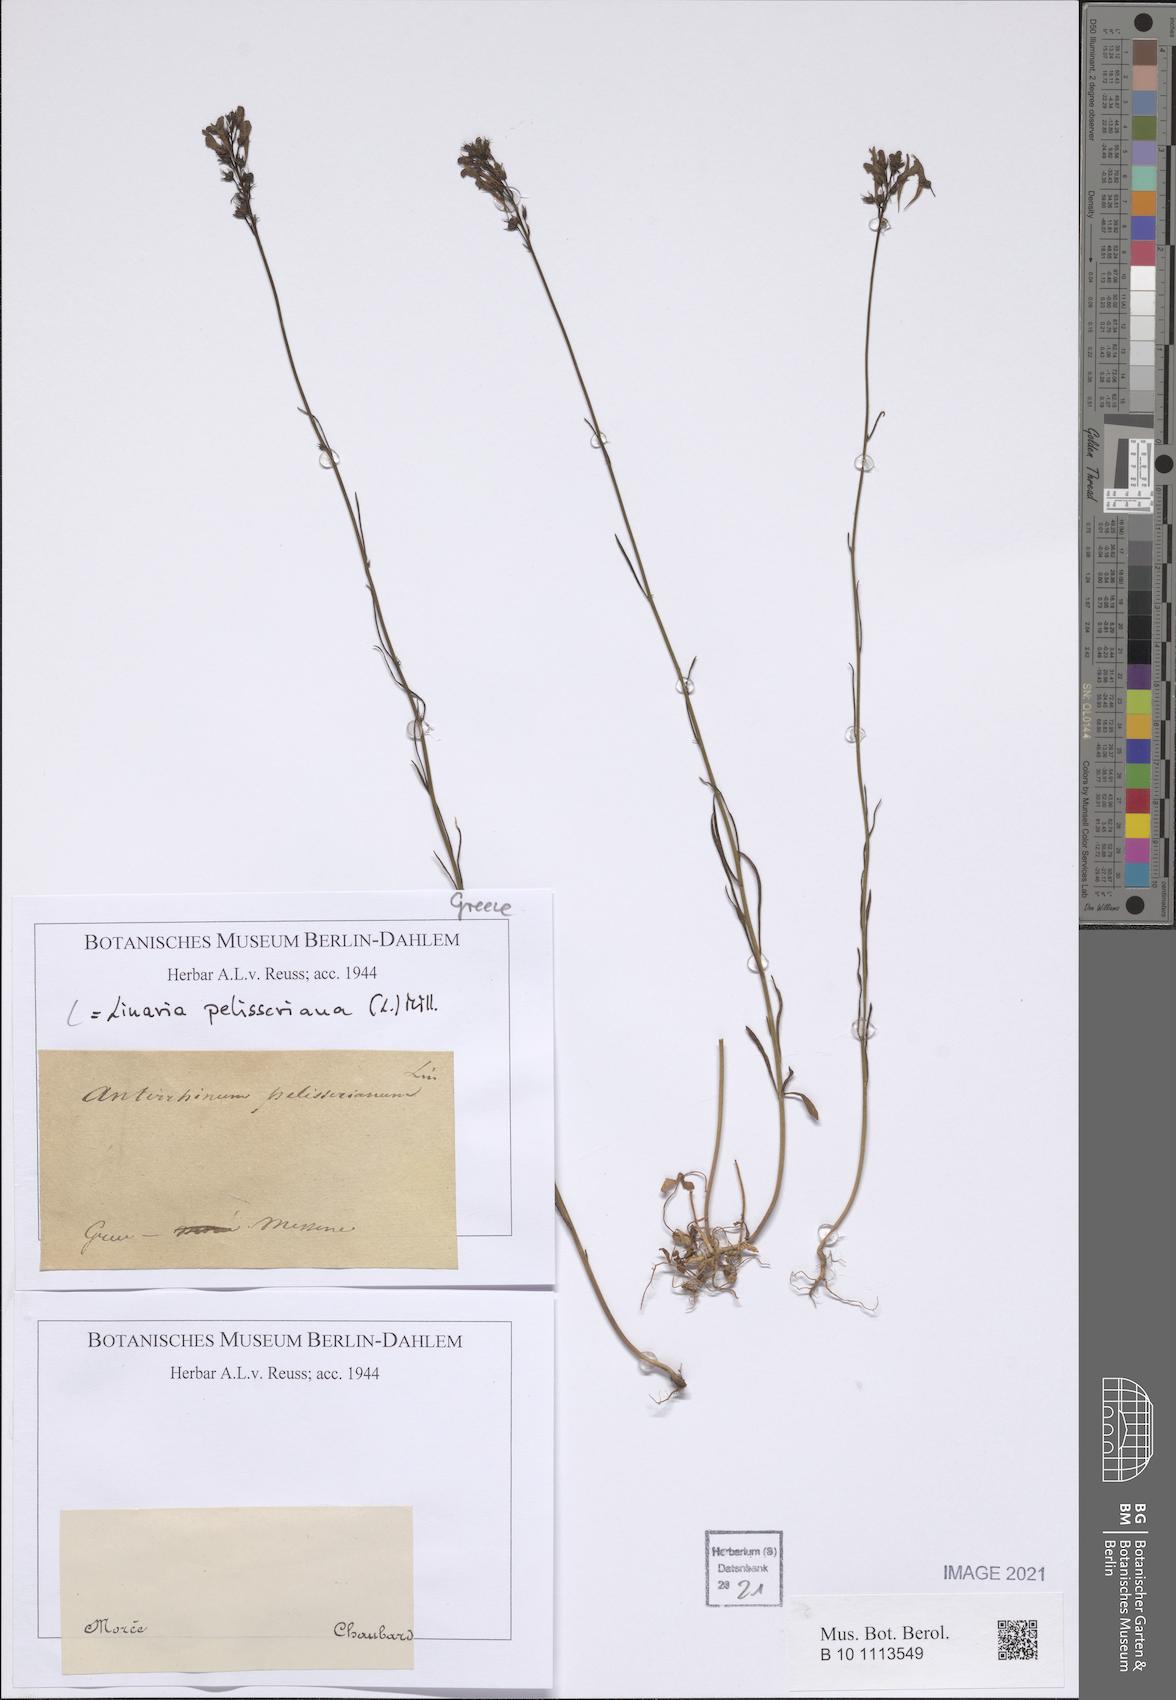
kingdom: Plantae
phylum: Tracheophyta
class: Magnoliopsida
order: Lamiales
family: Plantaginaceae
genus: Linaria
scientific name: Linaria pelisseriana
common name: Jersey toadflax
